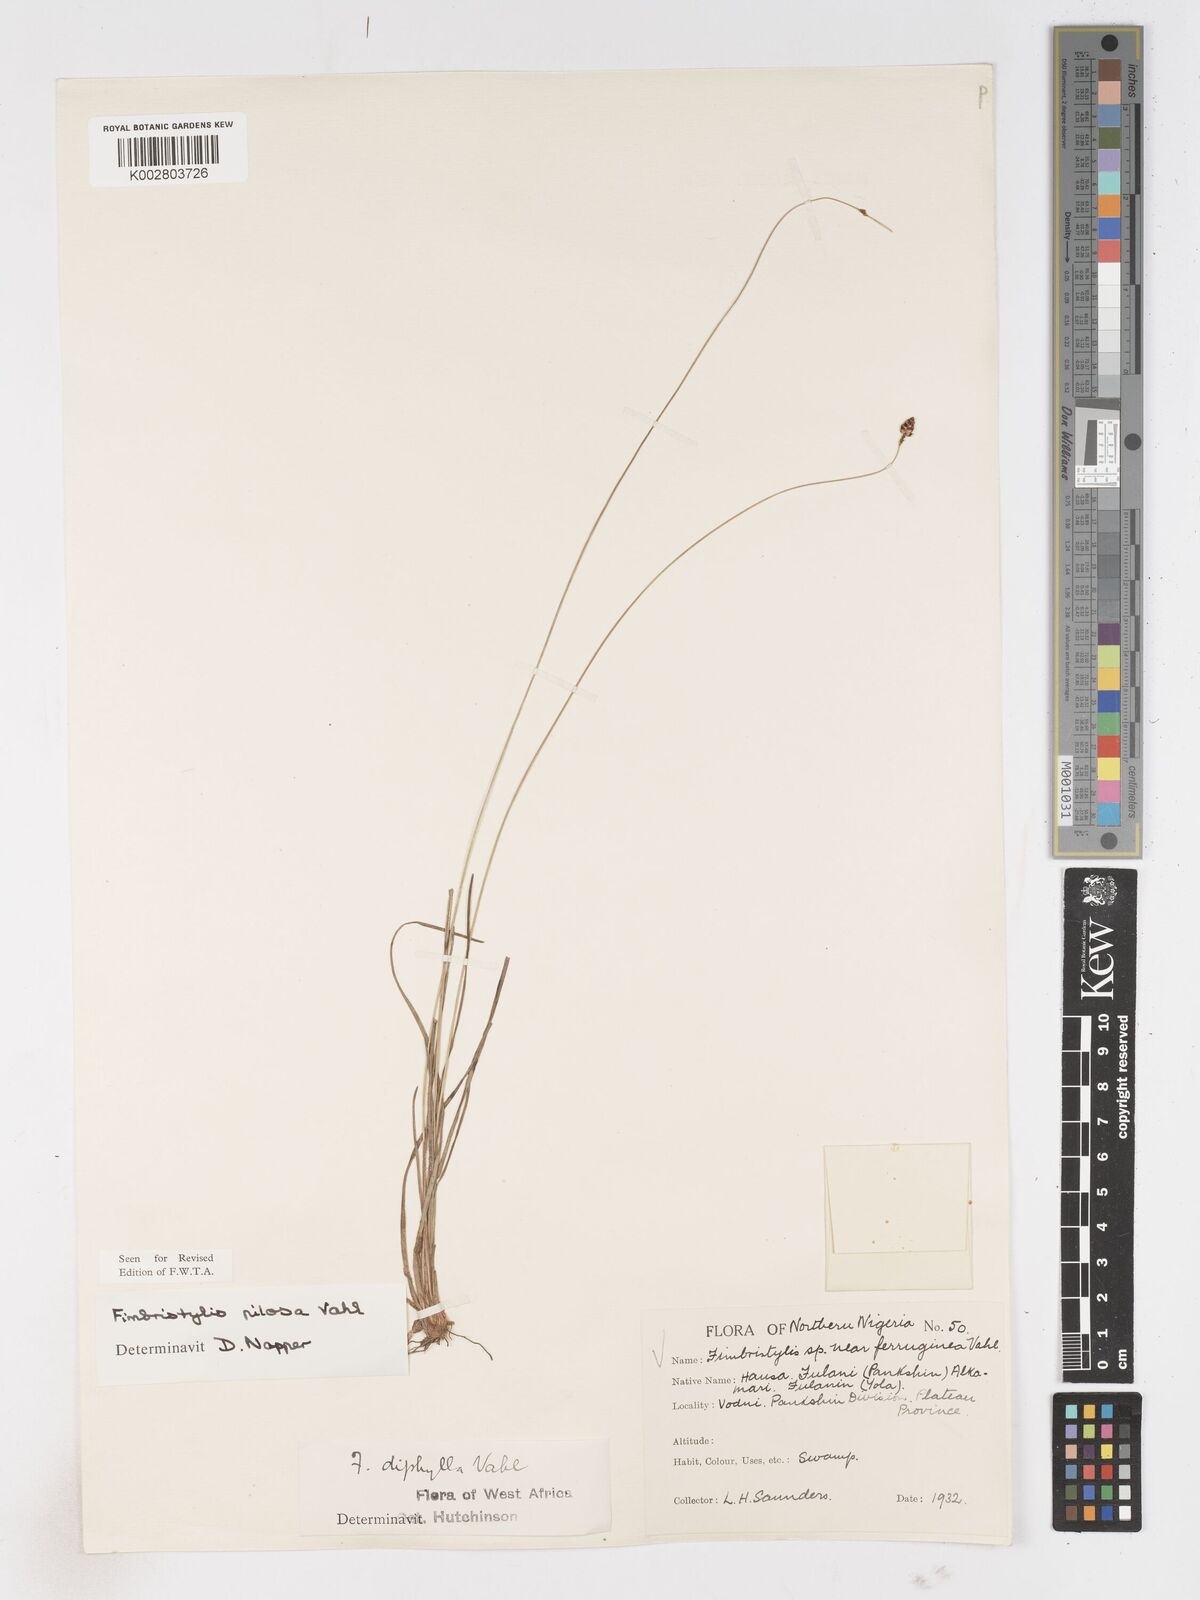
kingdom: Plantae
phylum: Tracheophyta
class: Liliopsida
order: Poales
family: Cyperaceae
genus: Fimbristylis
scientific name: Fimbristylis pilosa
